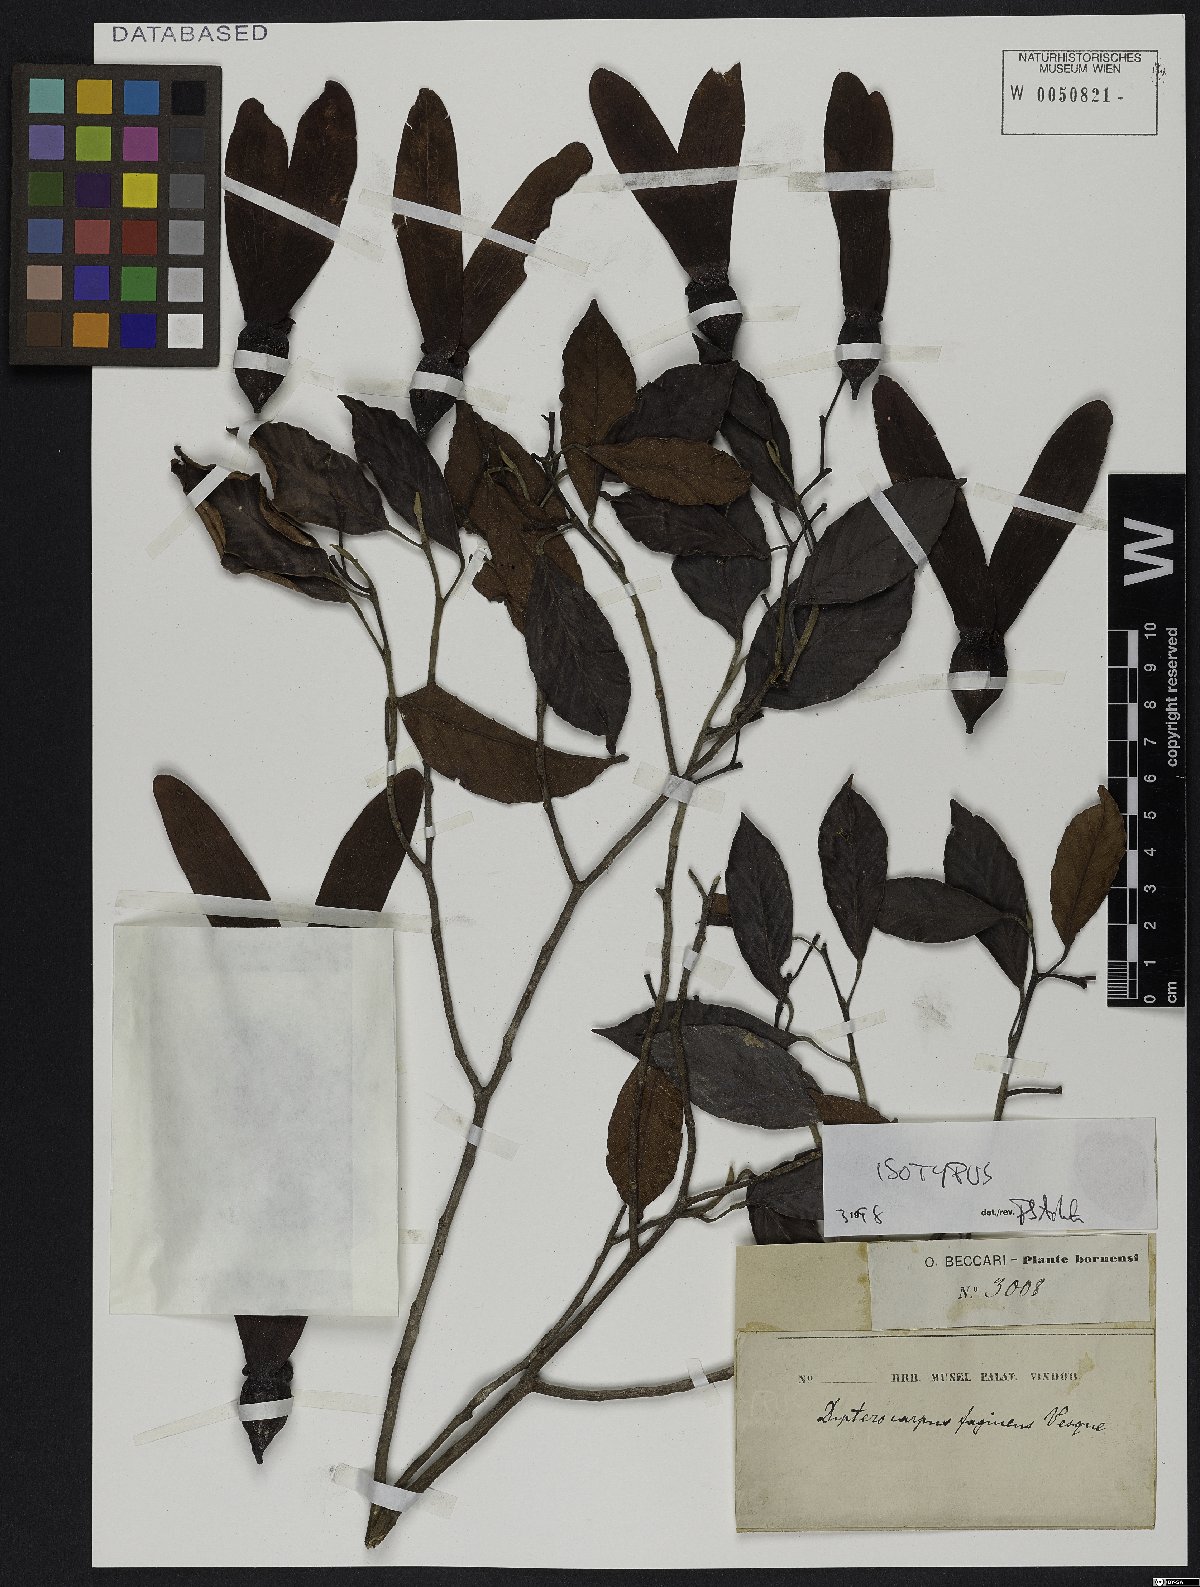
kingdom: Plantae
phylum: Tracheophyta
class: Magnoliopsida
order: Malvales
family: Dipterocarpaceae
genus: Dipterocarpus
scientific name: Dipterocarpus fagineus
